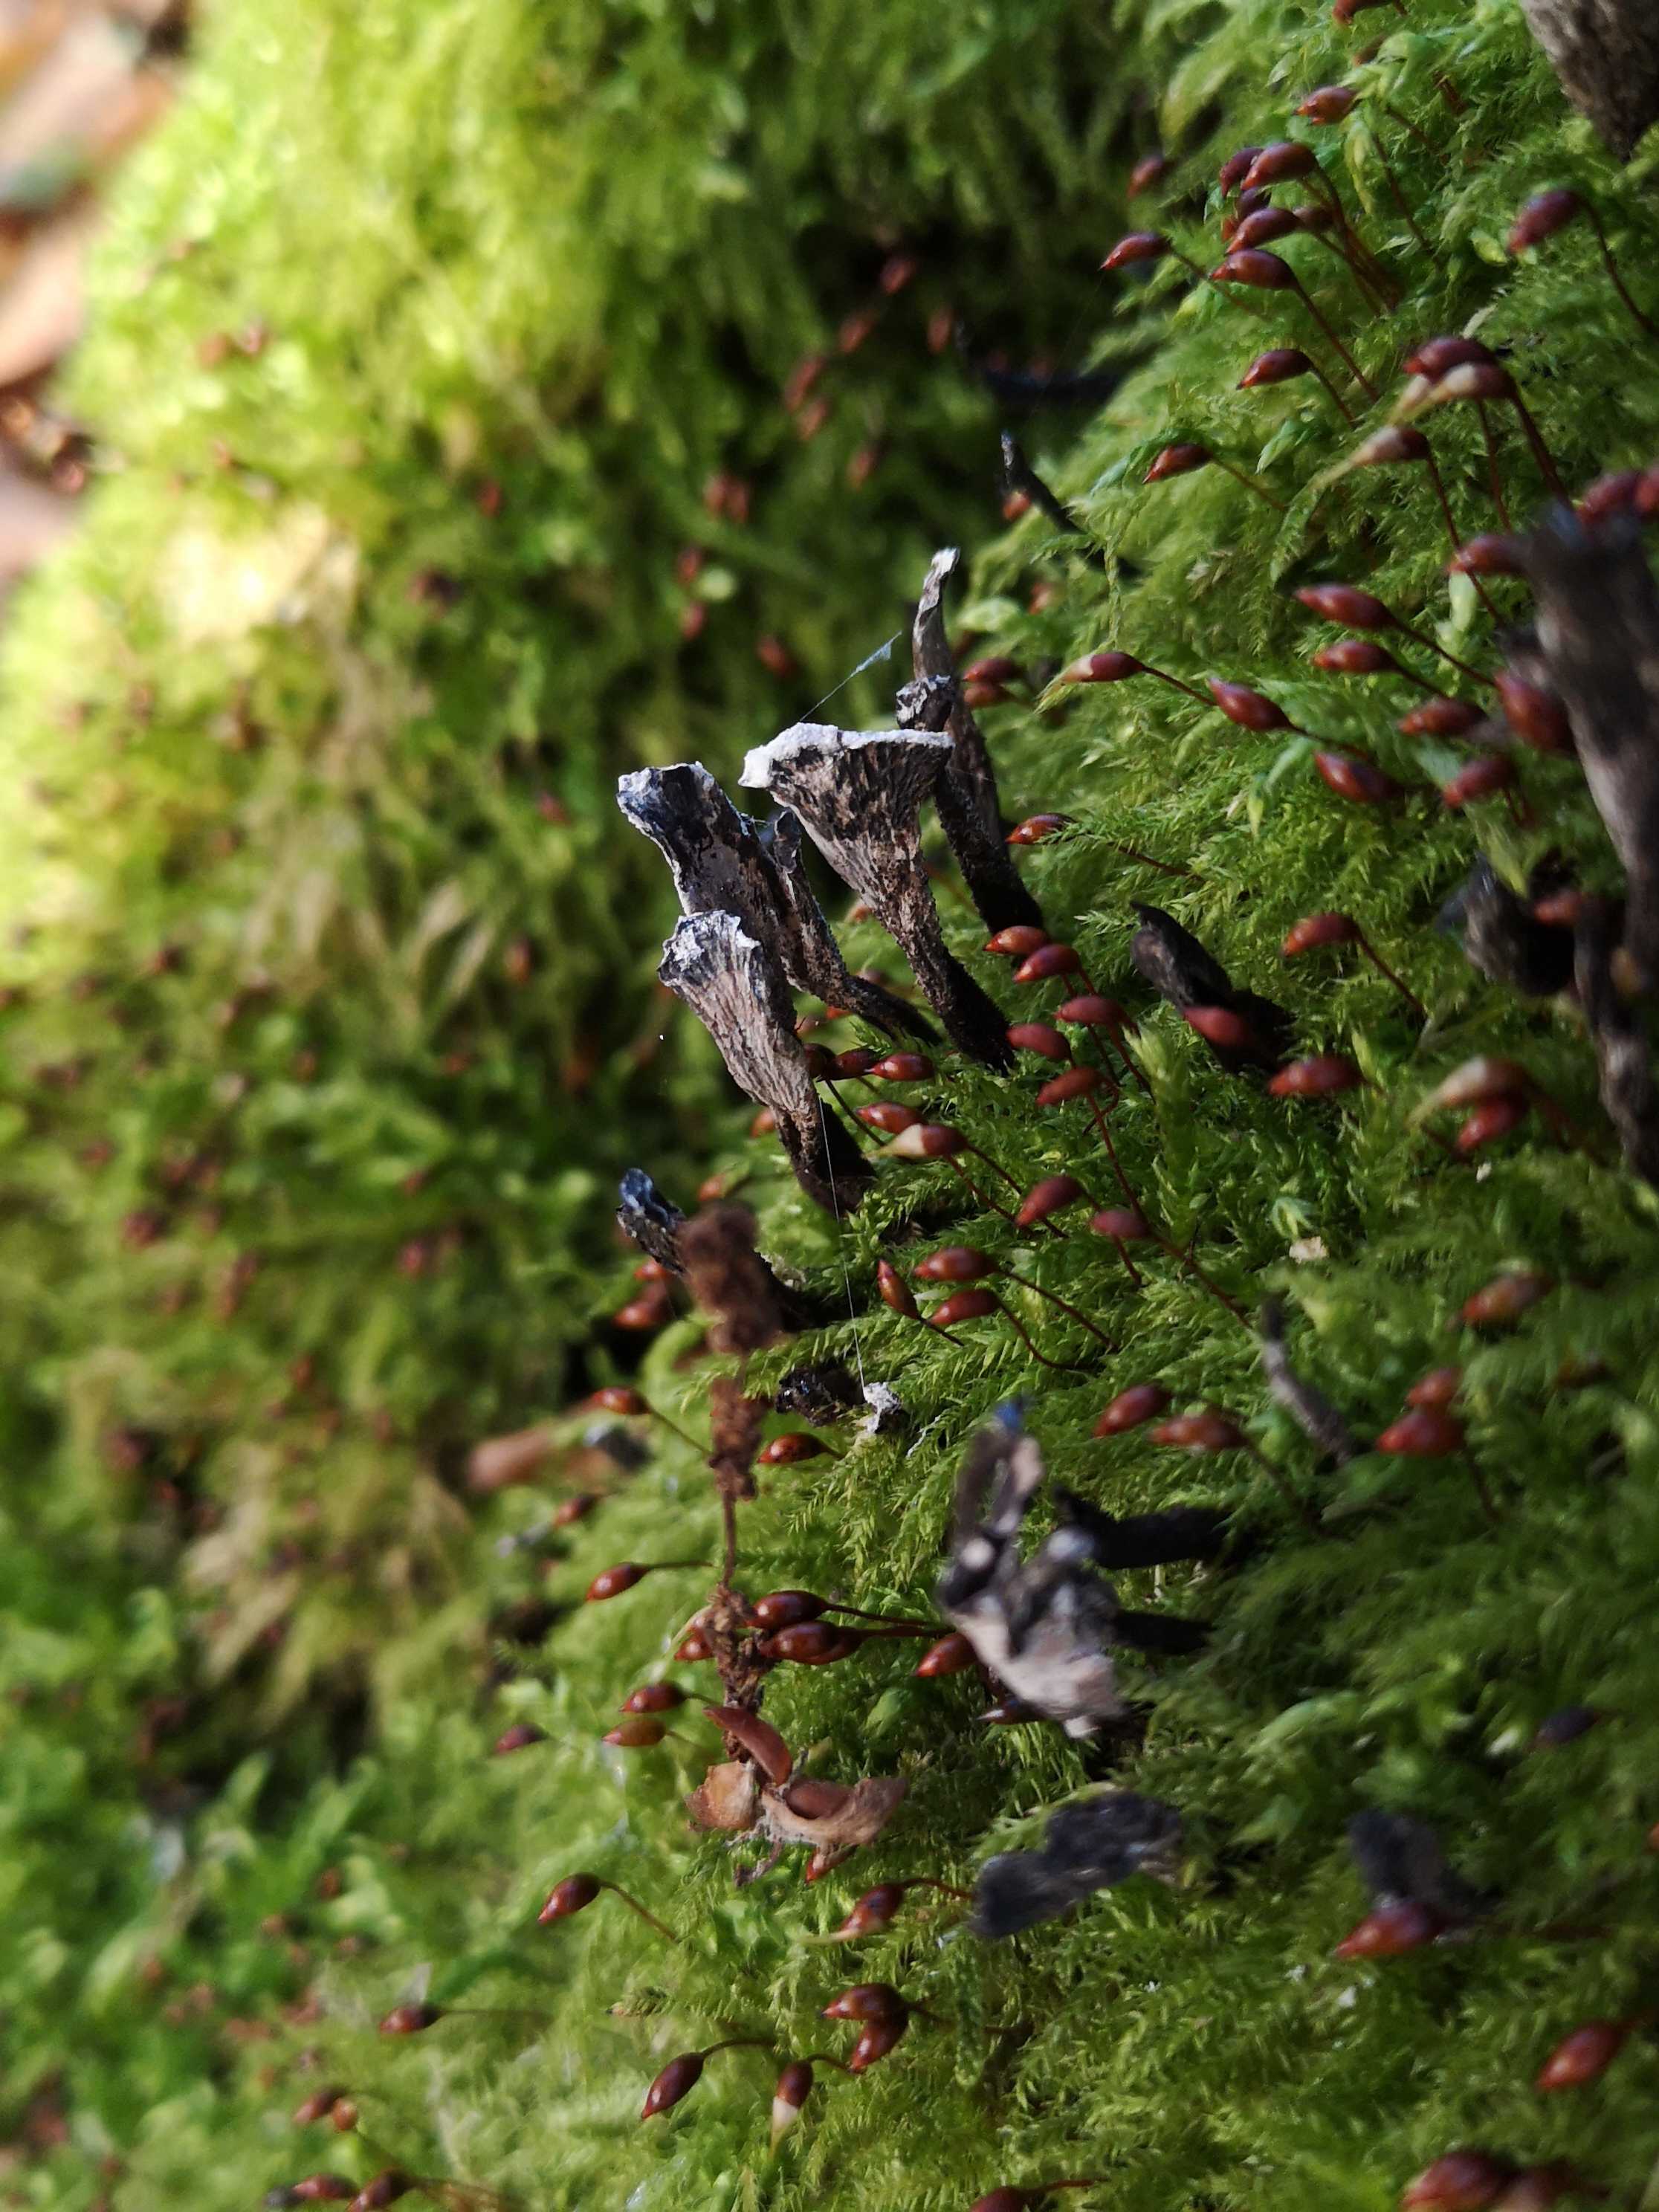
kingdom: Fungi
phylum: Ascomycota
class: Sordariomycetes
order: Xylariales
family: Xylariaceae
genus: Xylaria
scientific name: Xylaria hypoxylon
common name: grenet stødsvamp
